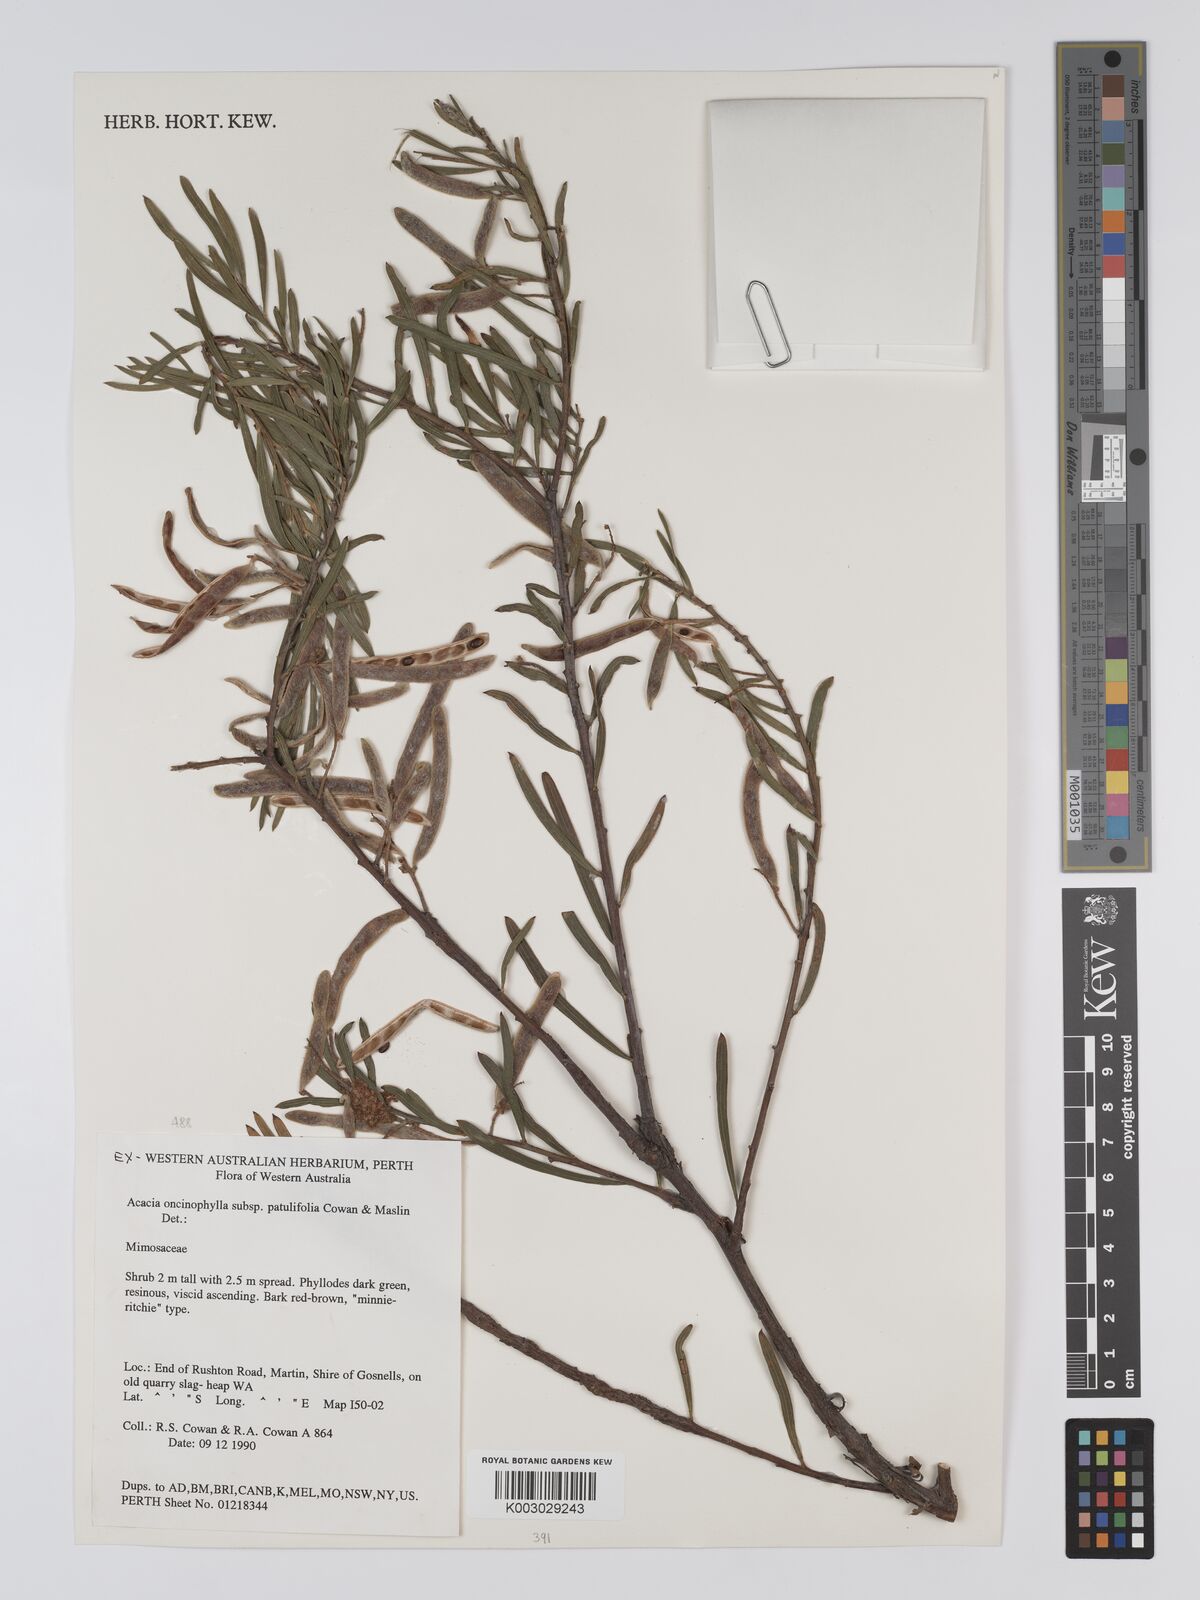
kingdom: Plantae
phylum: Tracheophyta
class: Magnoliopsida
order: Fabales
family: Fabaceae
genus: Acacia
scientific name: Acacia oncinophylla
